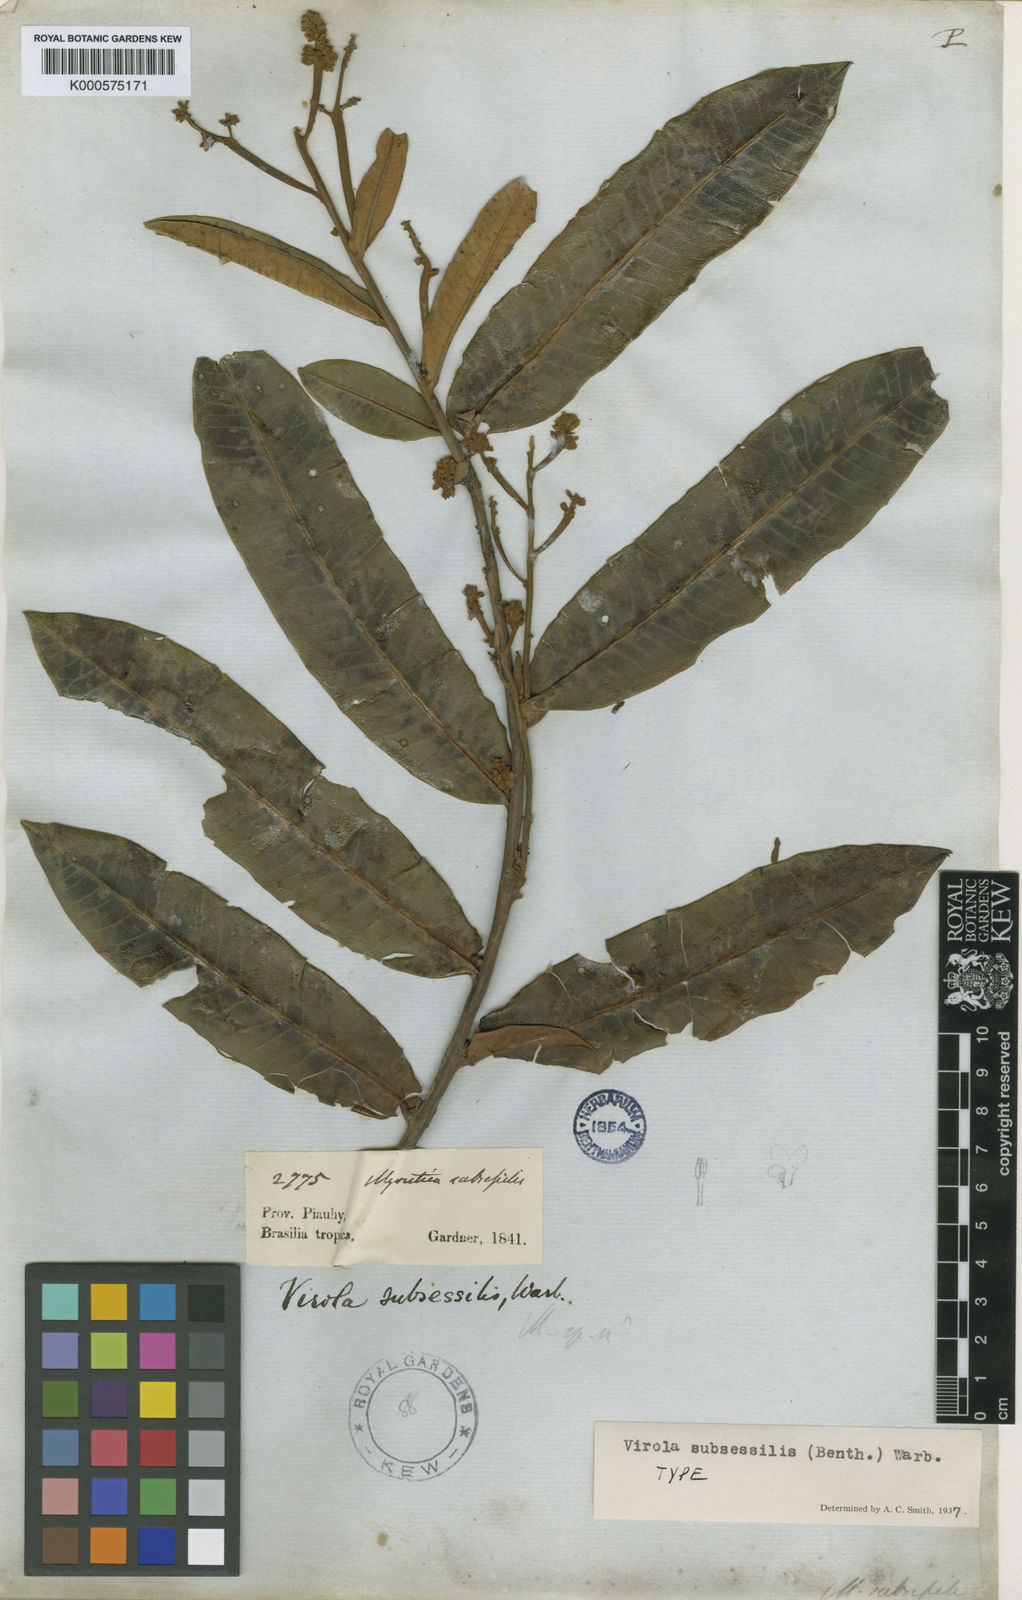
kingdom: Plantae
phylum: Tracheophyta
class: Magnoliopsida
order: Magnoliales
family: Myristicaceae
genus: Virola
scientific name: Virola subsessilis
